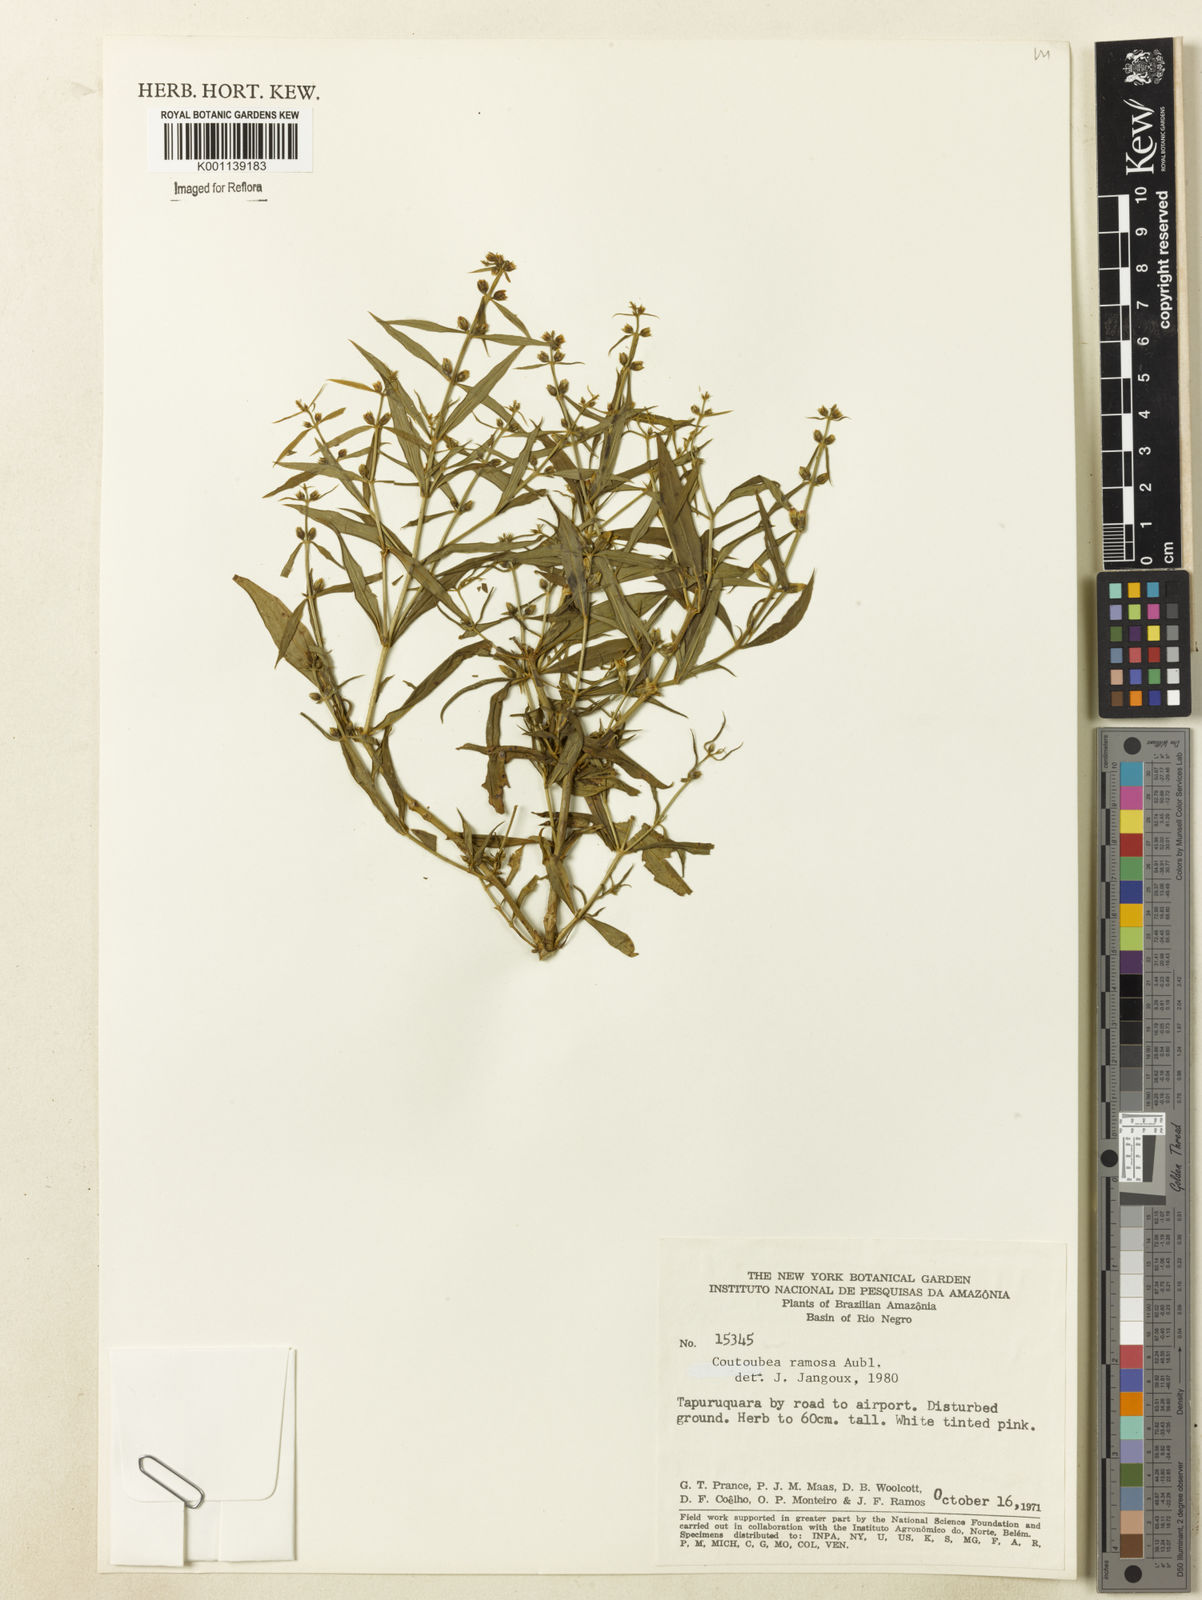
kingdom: Plantae
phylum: Tracheophyta
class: Magnoliopsida
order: Gentianales
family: Gentianaceae
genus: Coutoubea
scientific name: Coutoubea ramosa
